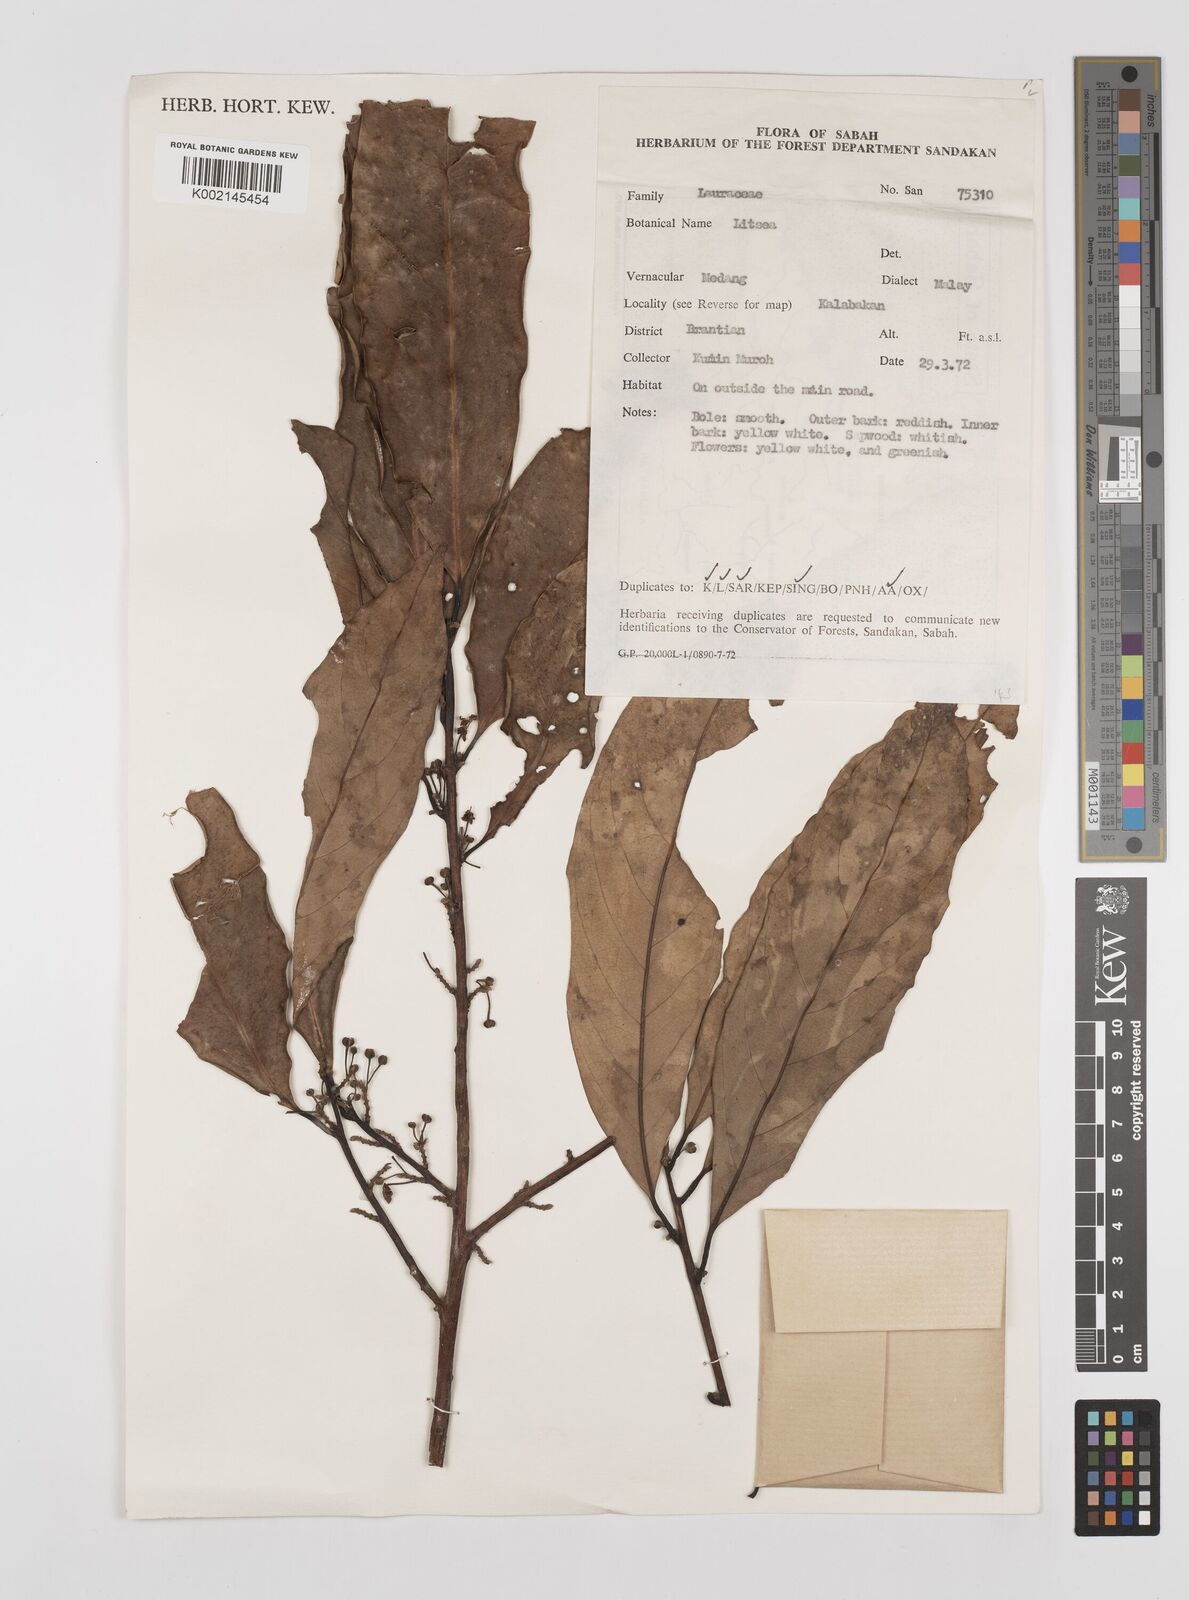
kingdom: Plantae
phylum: Tracheophyta
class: Magnoliopsida
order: Laurales
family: Lauraceae
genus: Litsea
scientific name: Litsea
